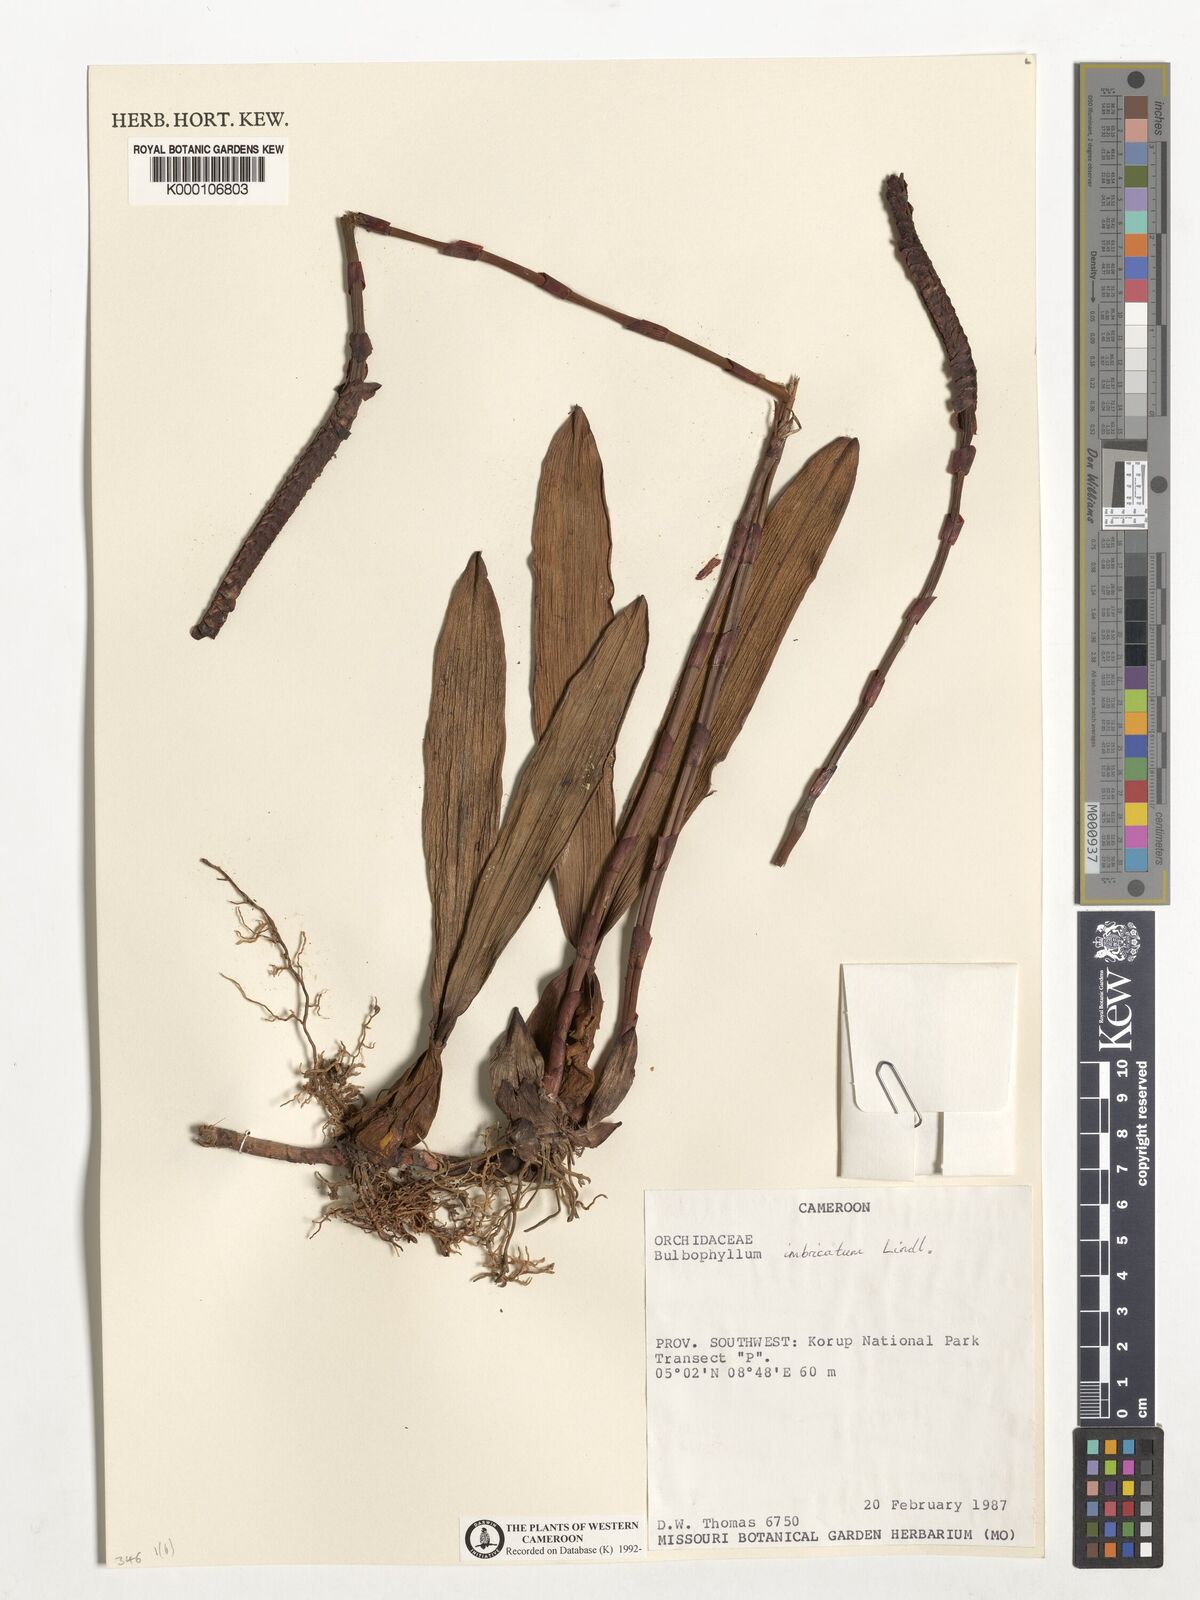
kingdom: Plantae
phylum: Tracheophyta
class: Liliopsida
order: Asparagales
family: Orchidaceae
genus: Bulbophyllum
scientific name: Bulbophyllum imbricatum
